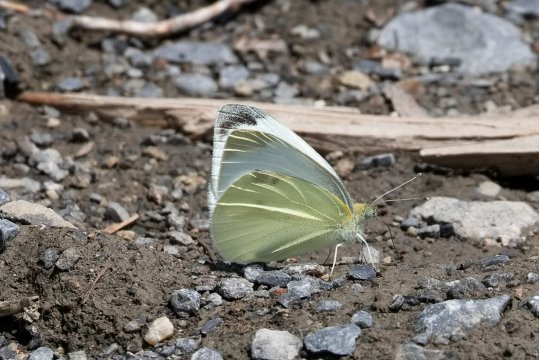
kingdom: Animalia
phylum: Arthropoda
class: Insecta
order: Lepidoptera
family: Pieridae
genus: Pieris
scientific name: Pieris rapae
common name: Cabbage White
